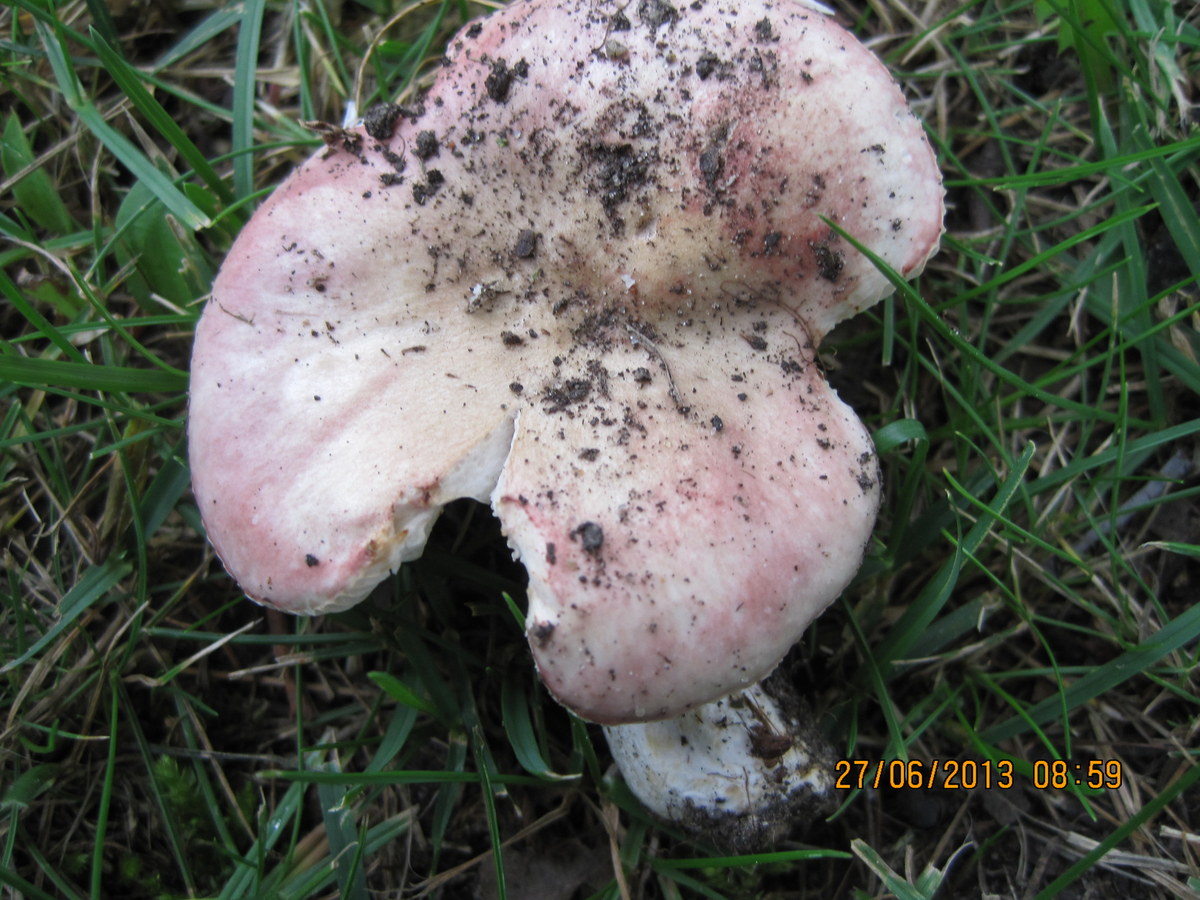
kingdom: Fungi
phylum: Basidiomycota
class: Agaricomycetes
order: Russulales
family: Russulaceae
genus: Russula
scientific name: Russula depallens
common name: falmende skørhat
